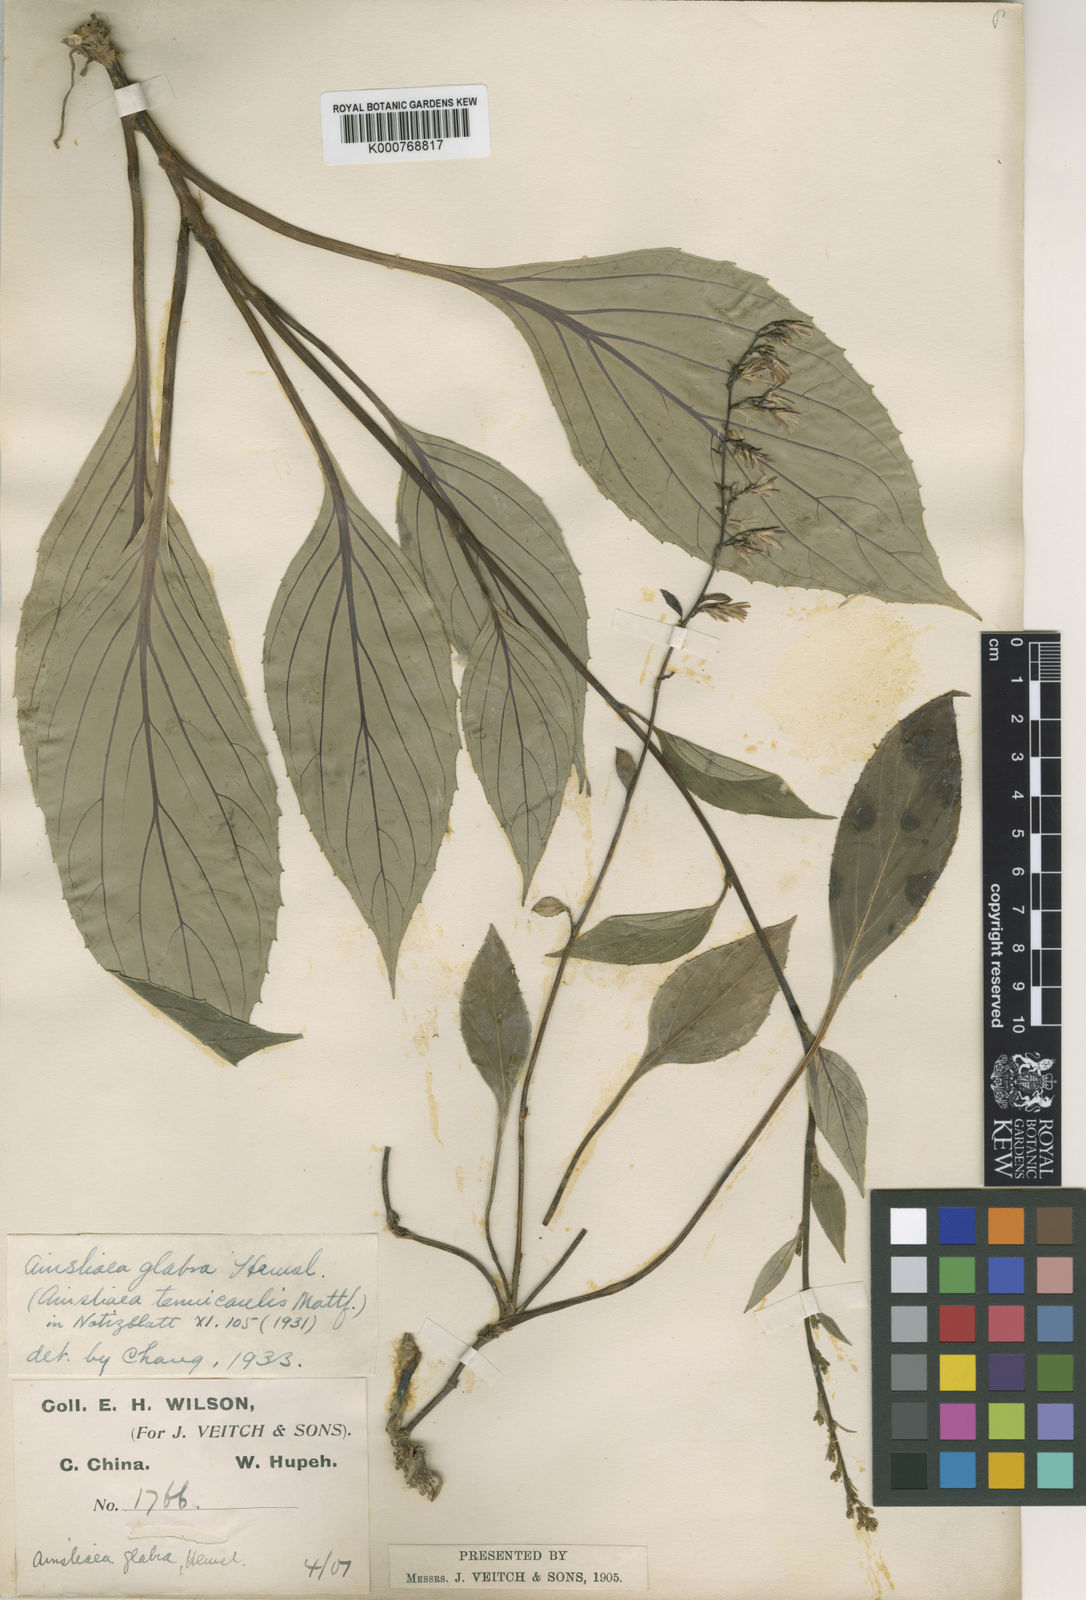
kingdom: Plantae
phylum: Tracheophyta
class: Magnoliopsida
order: Asterales
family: Asteraceae
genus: Ainsliaea
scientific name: Ainsliaea glabra
